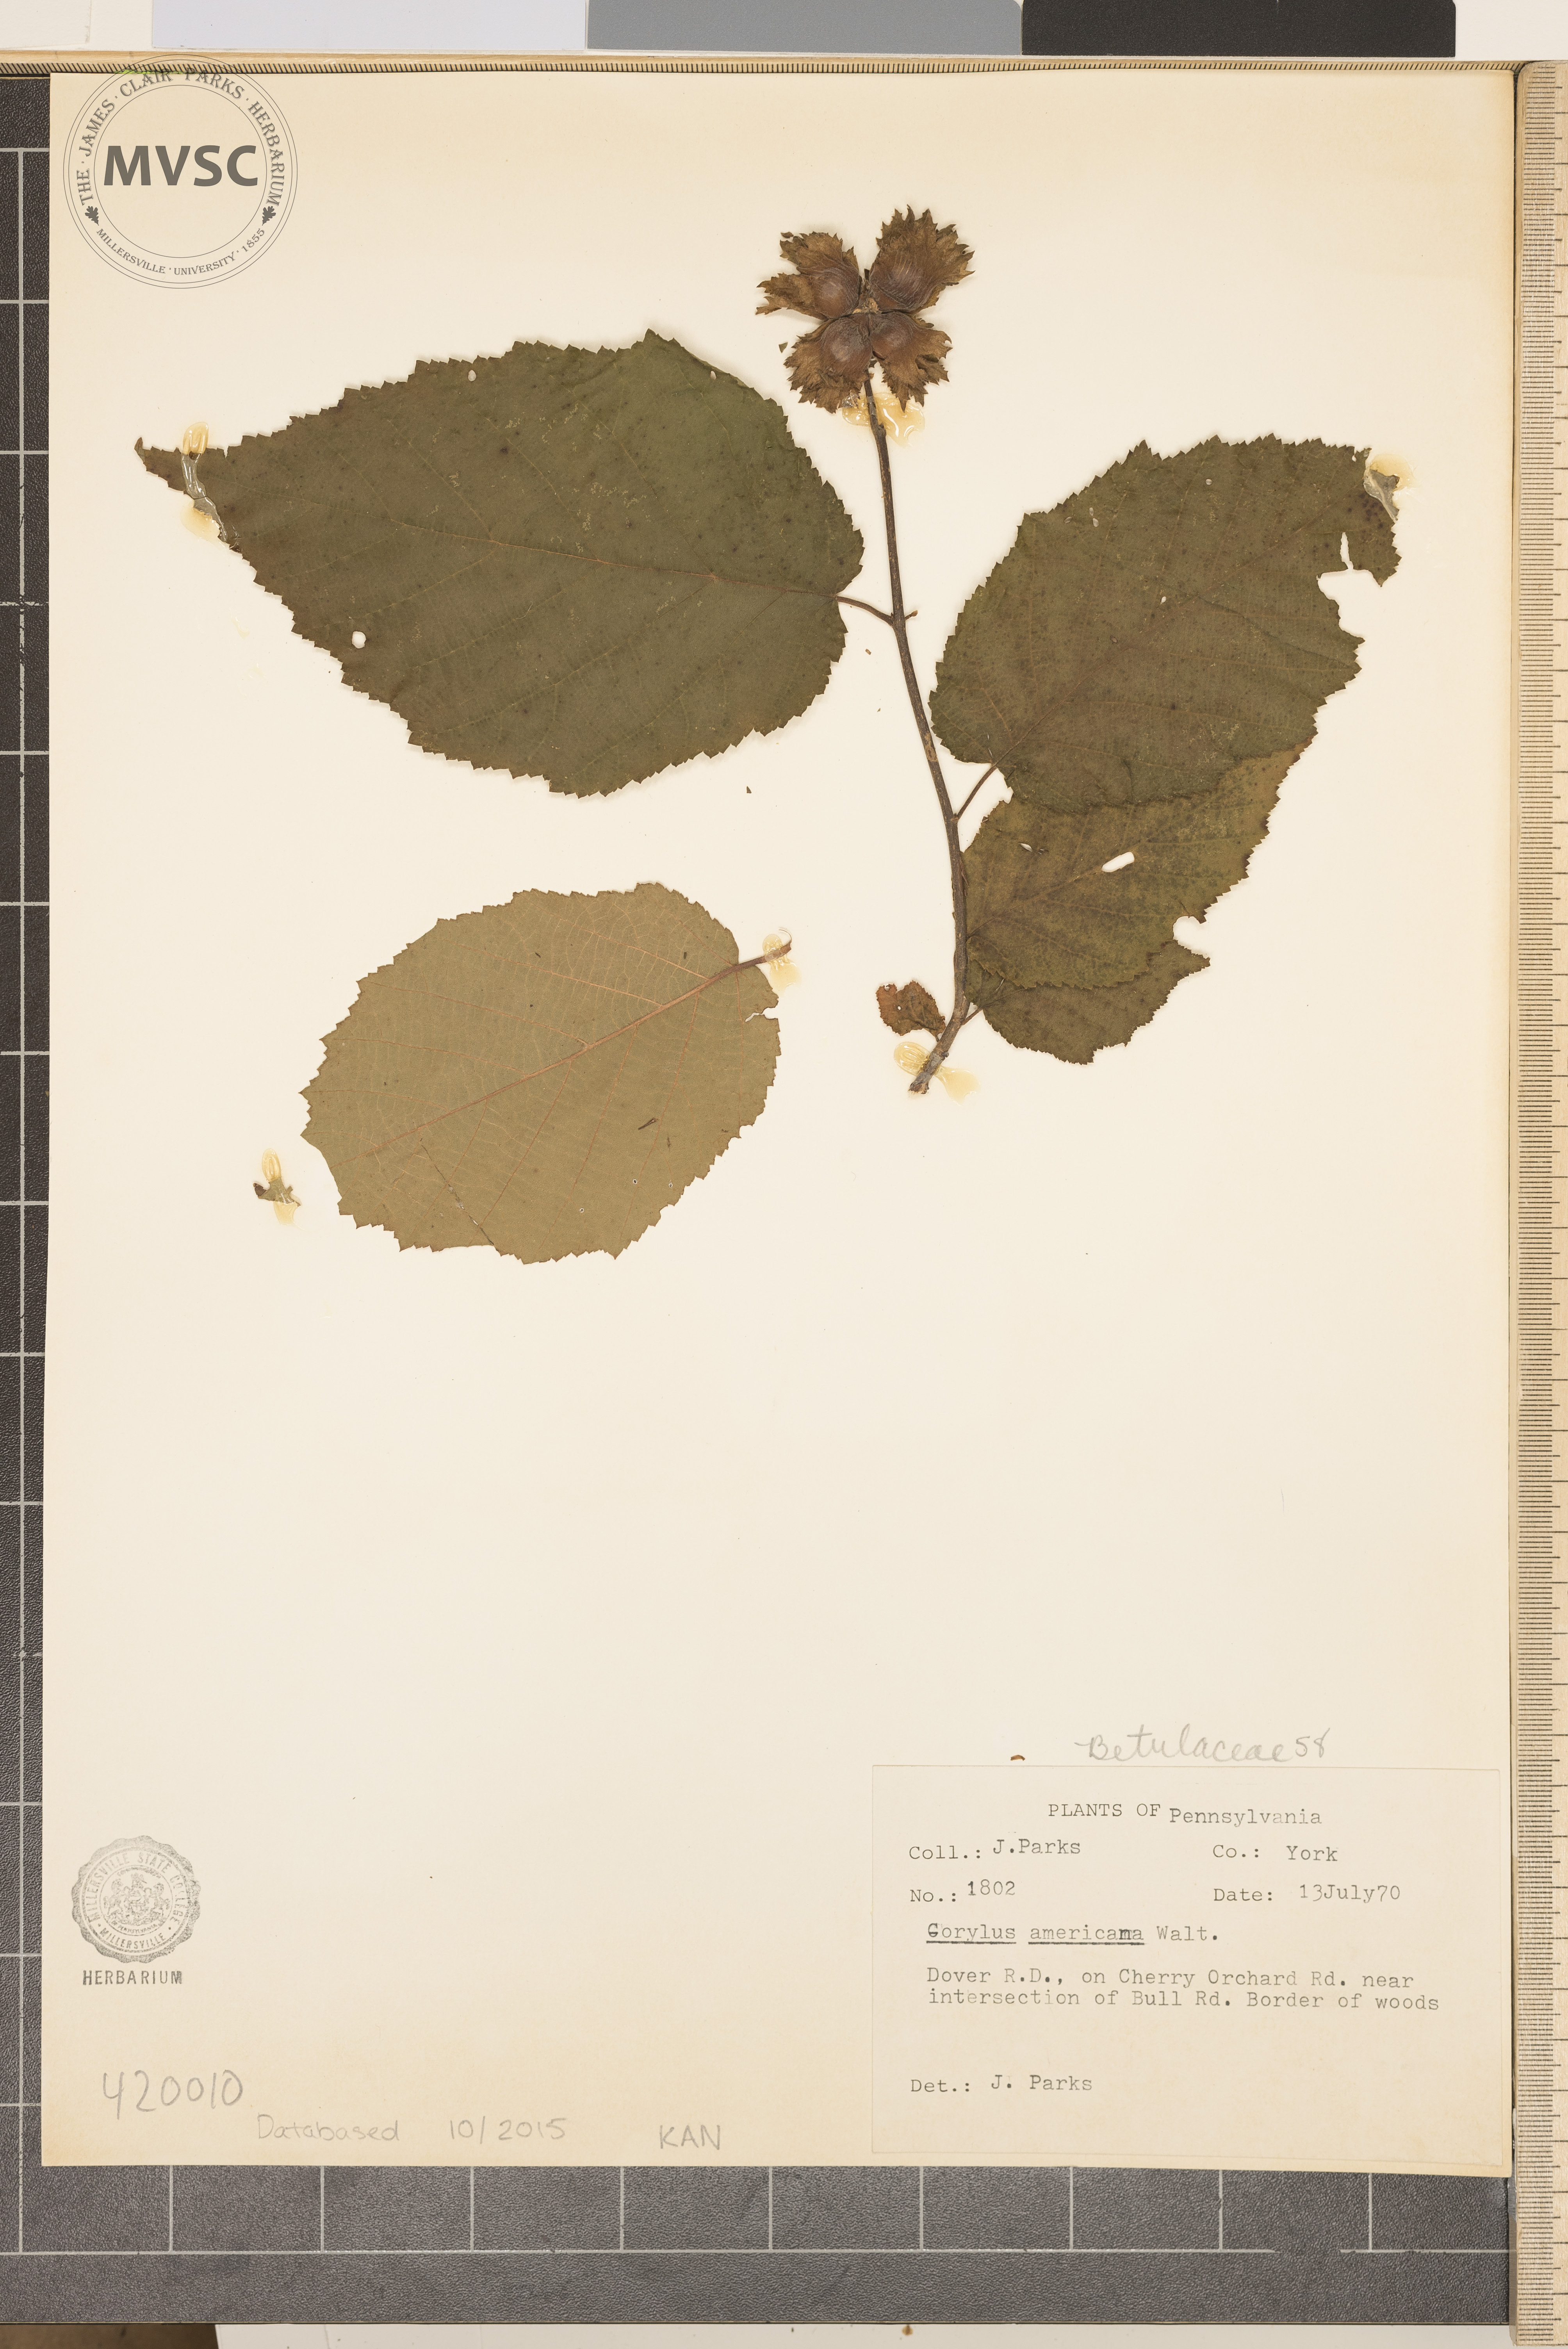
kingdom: Plantae
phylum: Tracheophyta
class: Magnoliopsida
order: Fagales
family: Betulaceae
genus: Corylus
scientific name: Corylus americana
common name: American hazel
